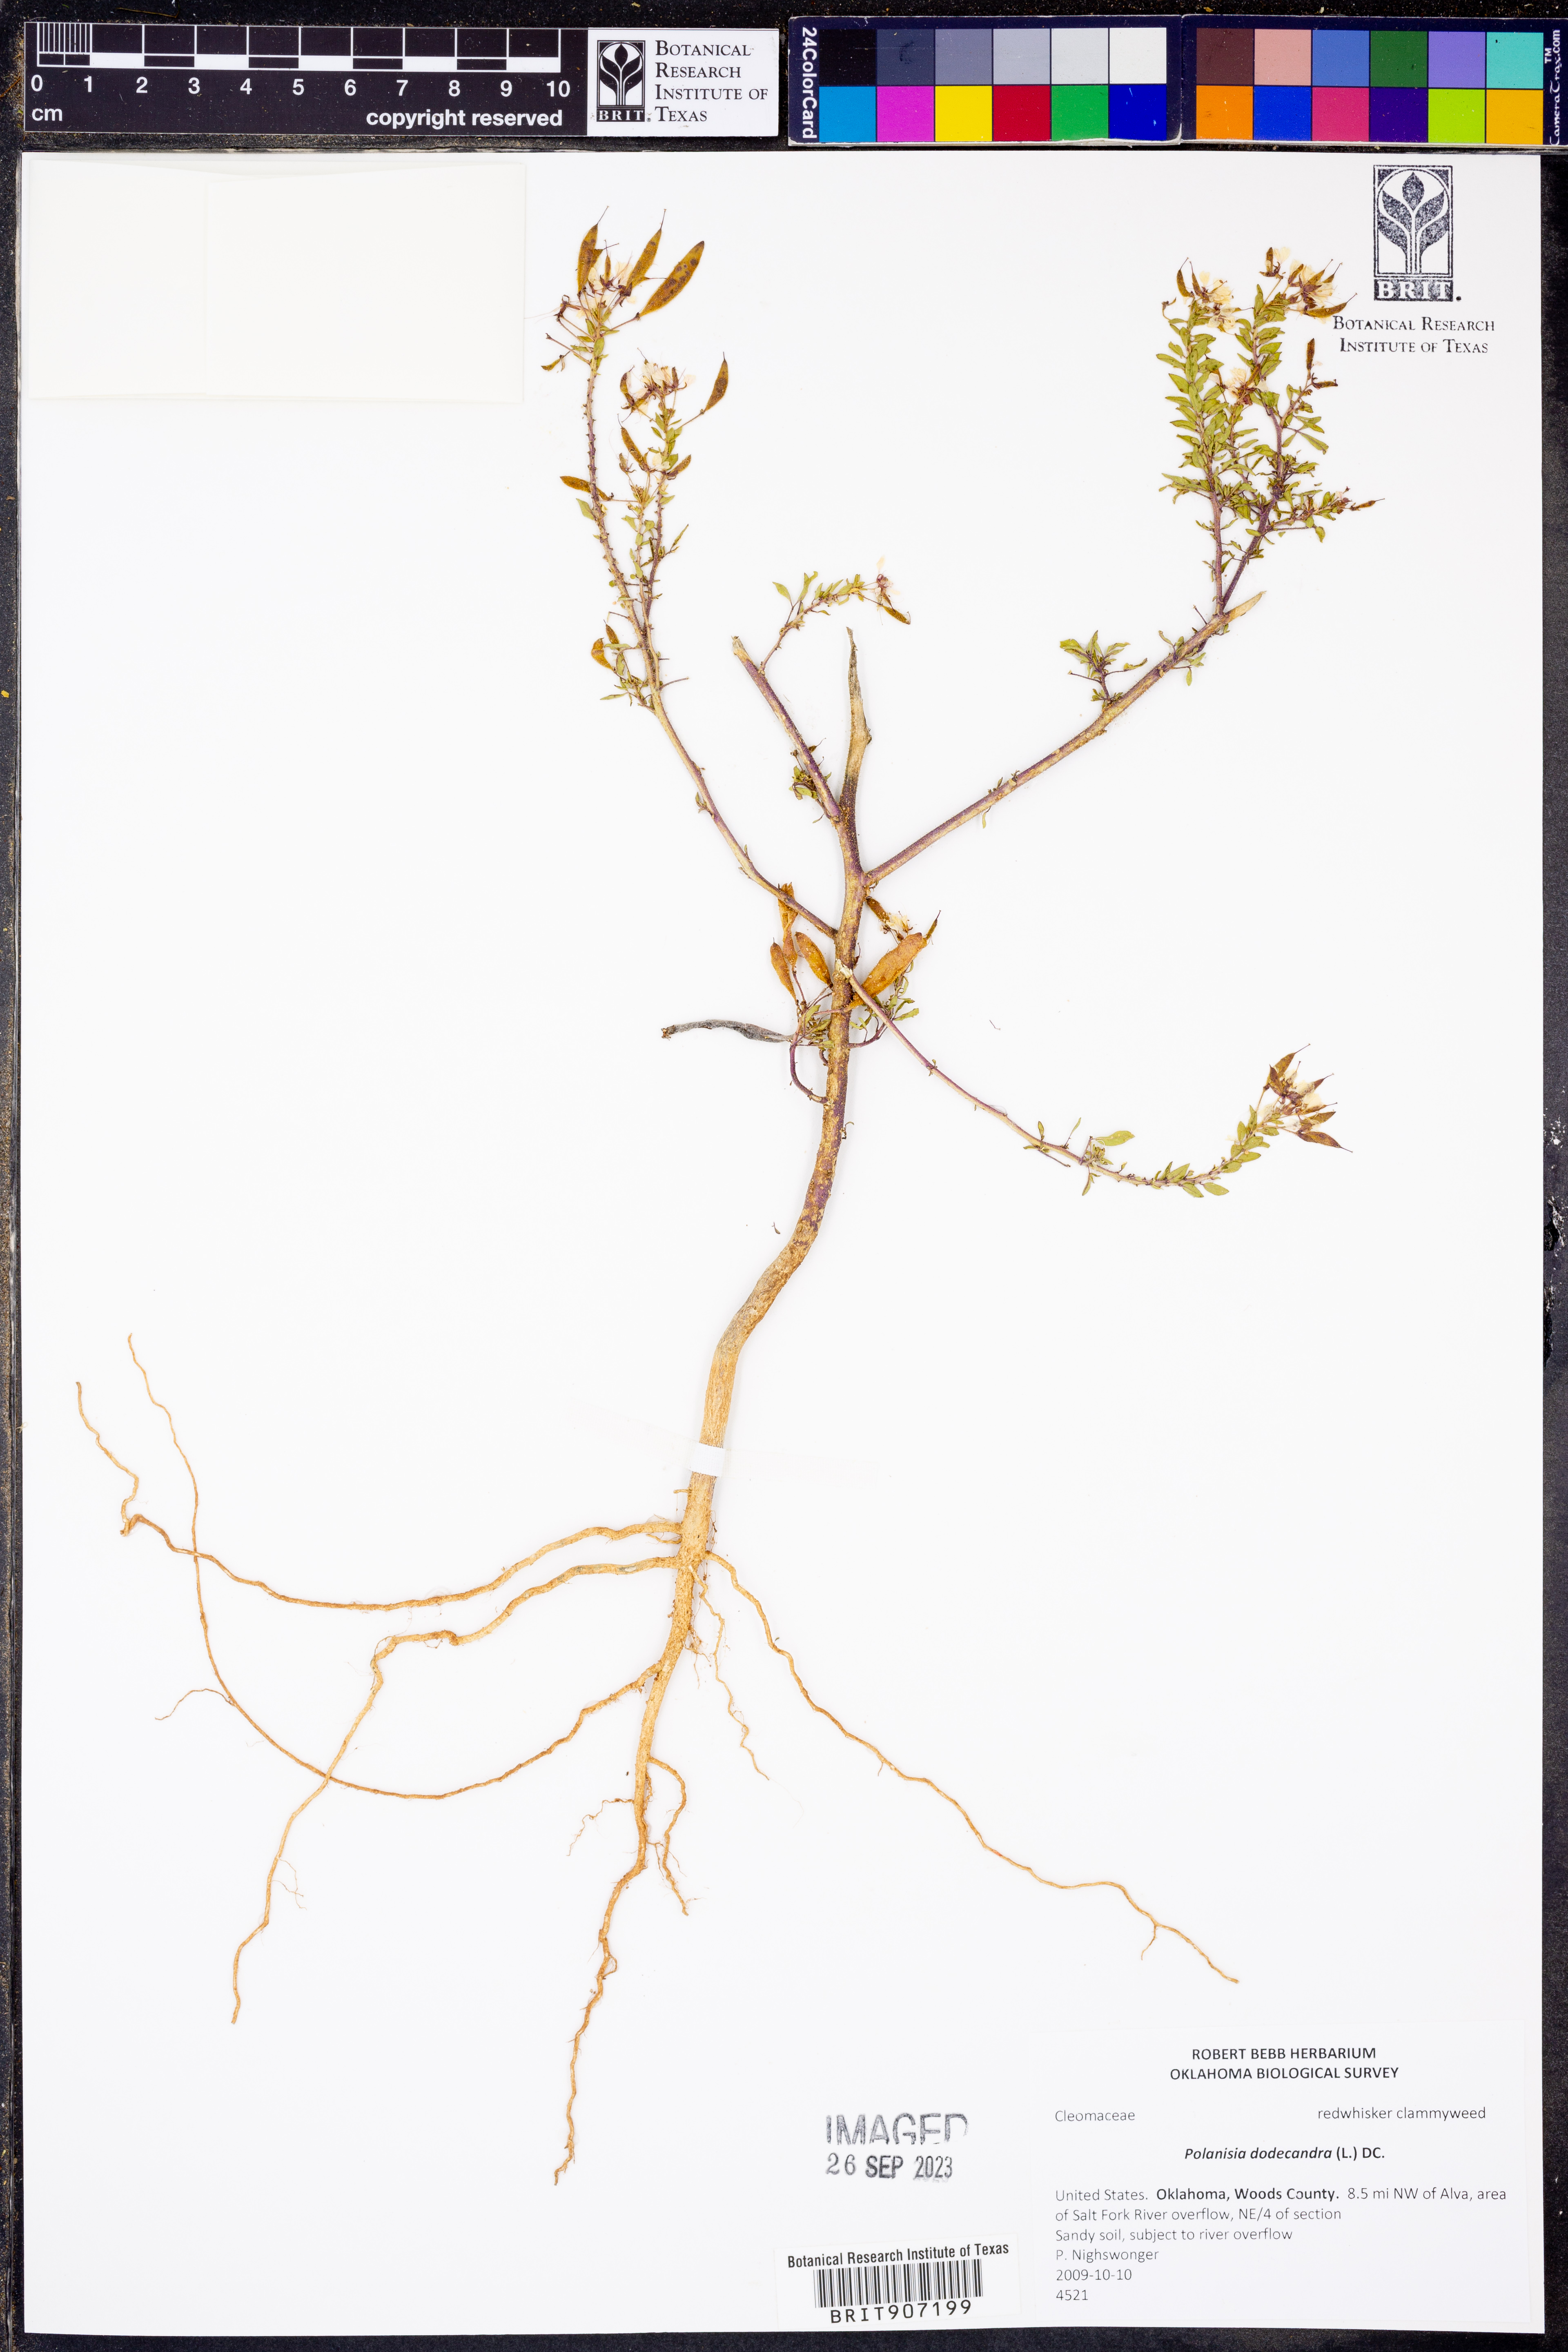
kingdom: Plantae
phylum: Tracheophyta
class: Magnoliopsida
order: Brassicales
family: Cleomaceae
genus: Polanisia
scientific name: Polanisia dodecandra
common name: Clammyweed
